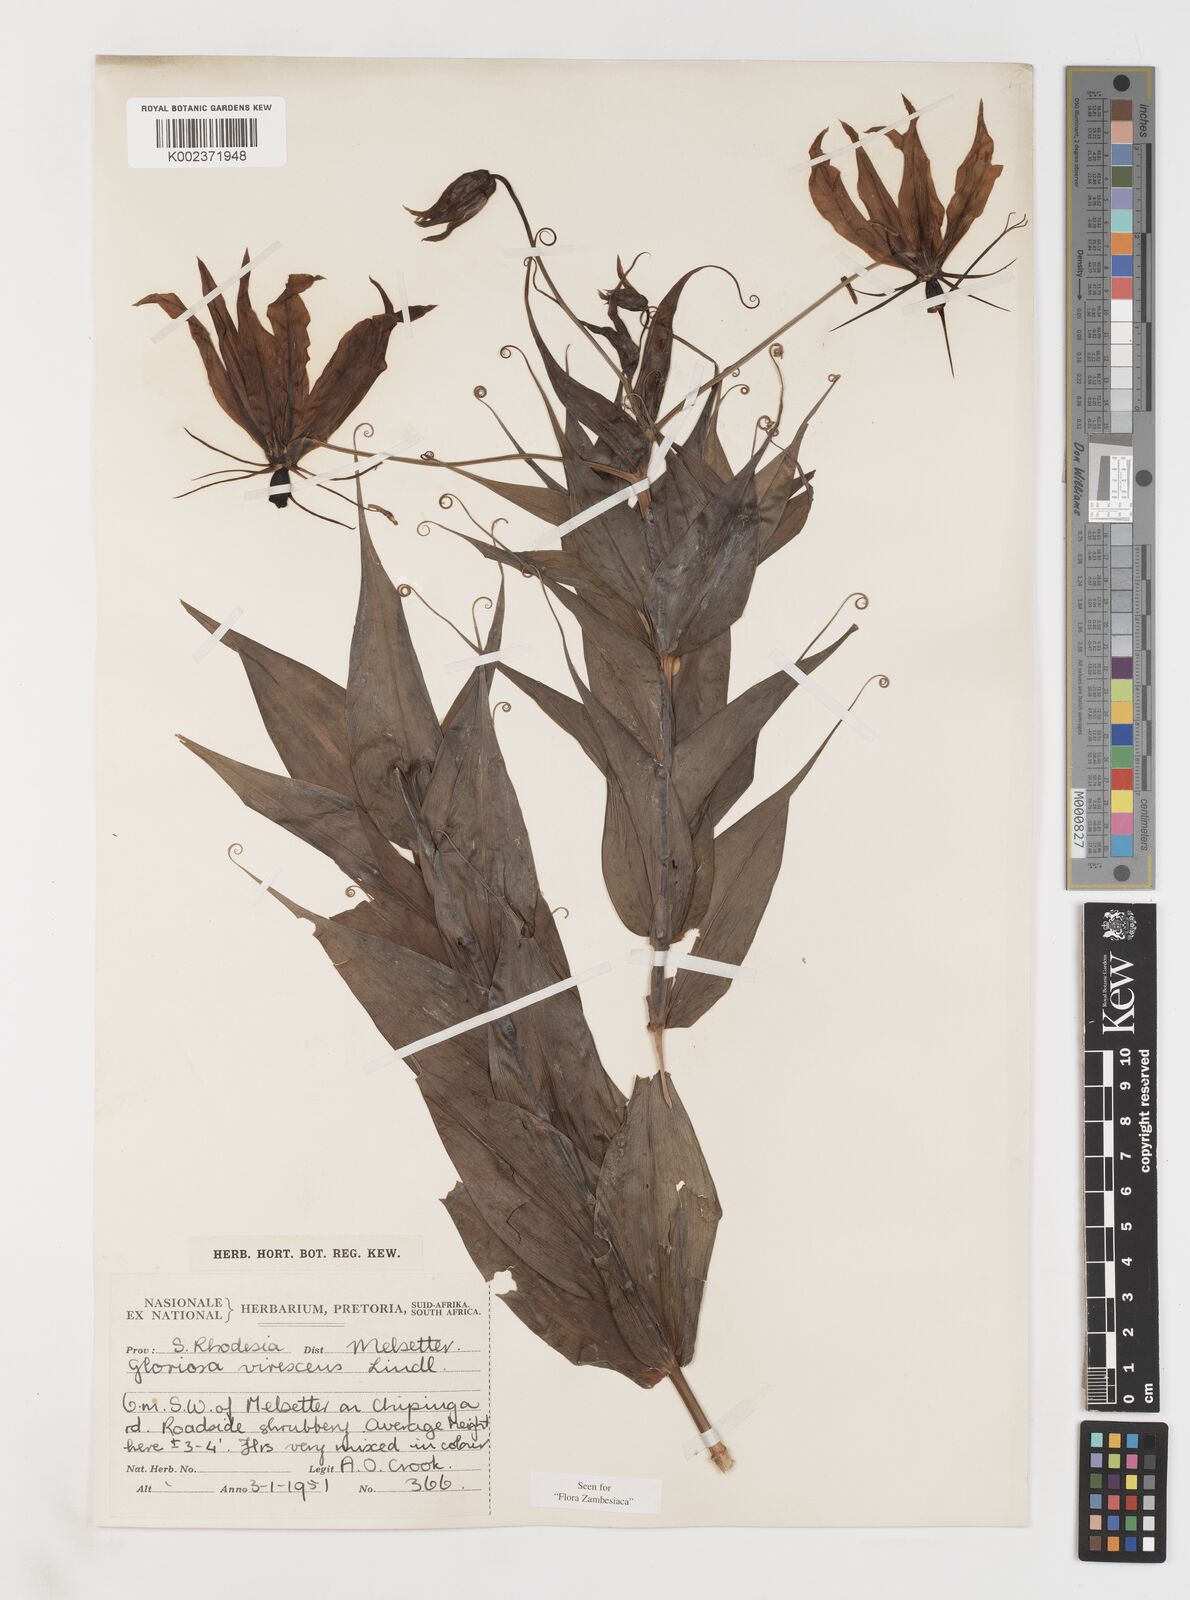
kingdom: Plantae
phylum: Tracheophyta
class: Liliopsida
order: Liliales
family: Colchicaceae
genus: Gloriosa
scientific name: Gloriosa simplex
